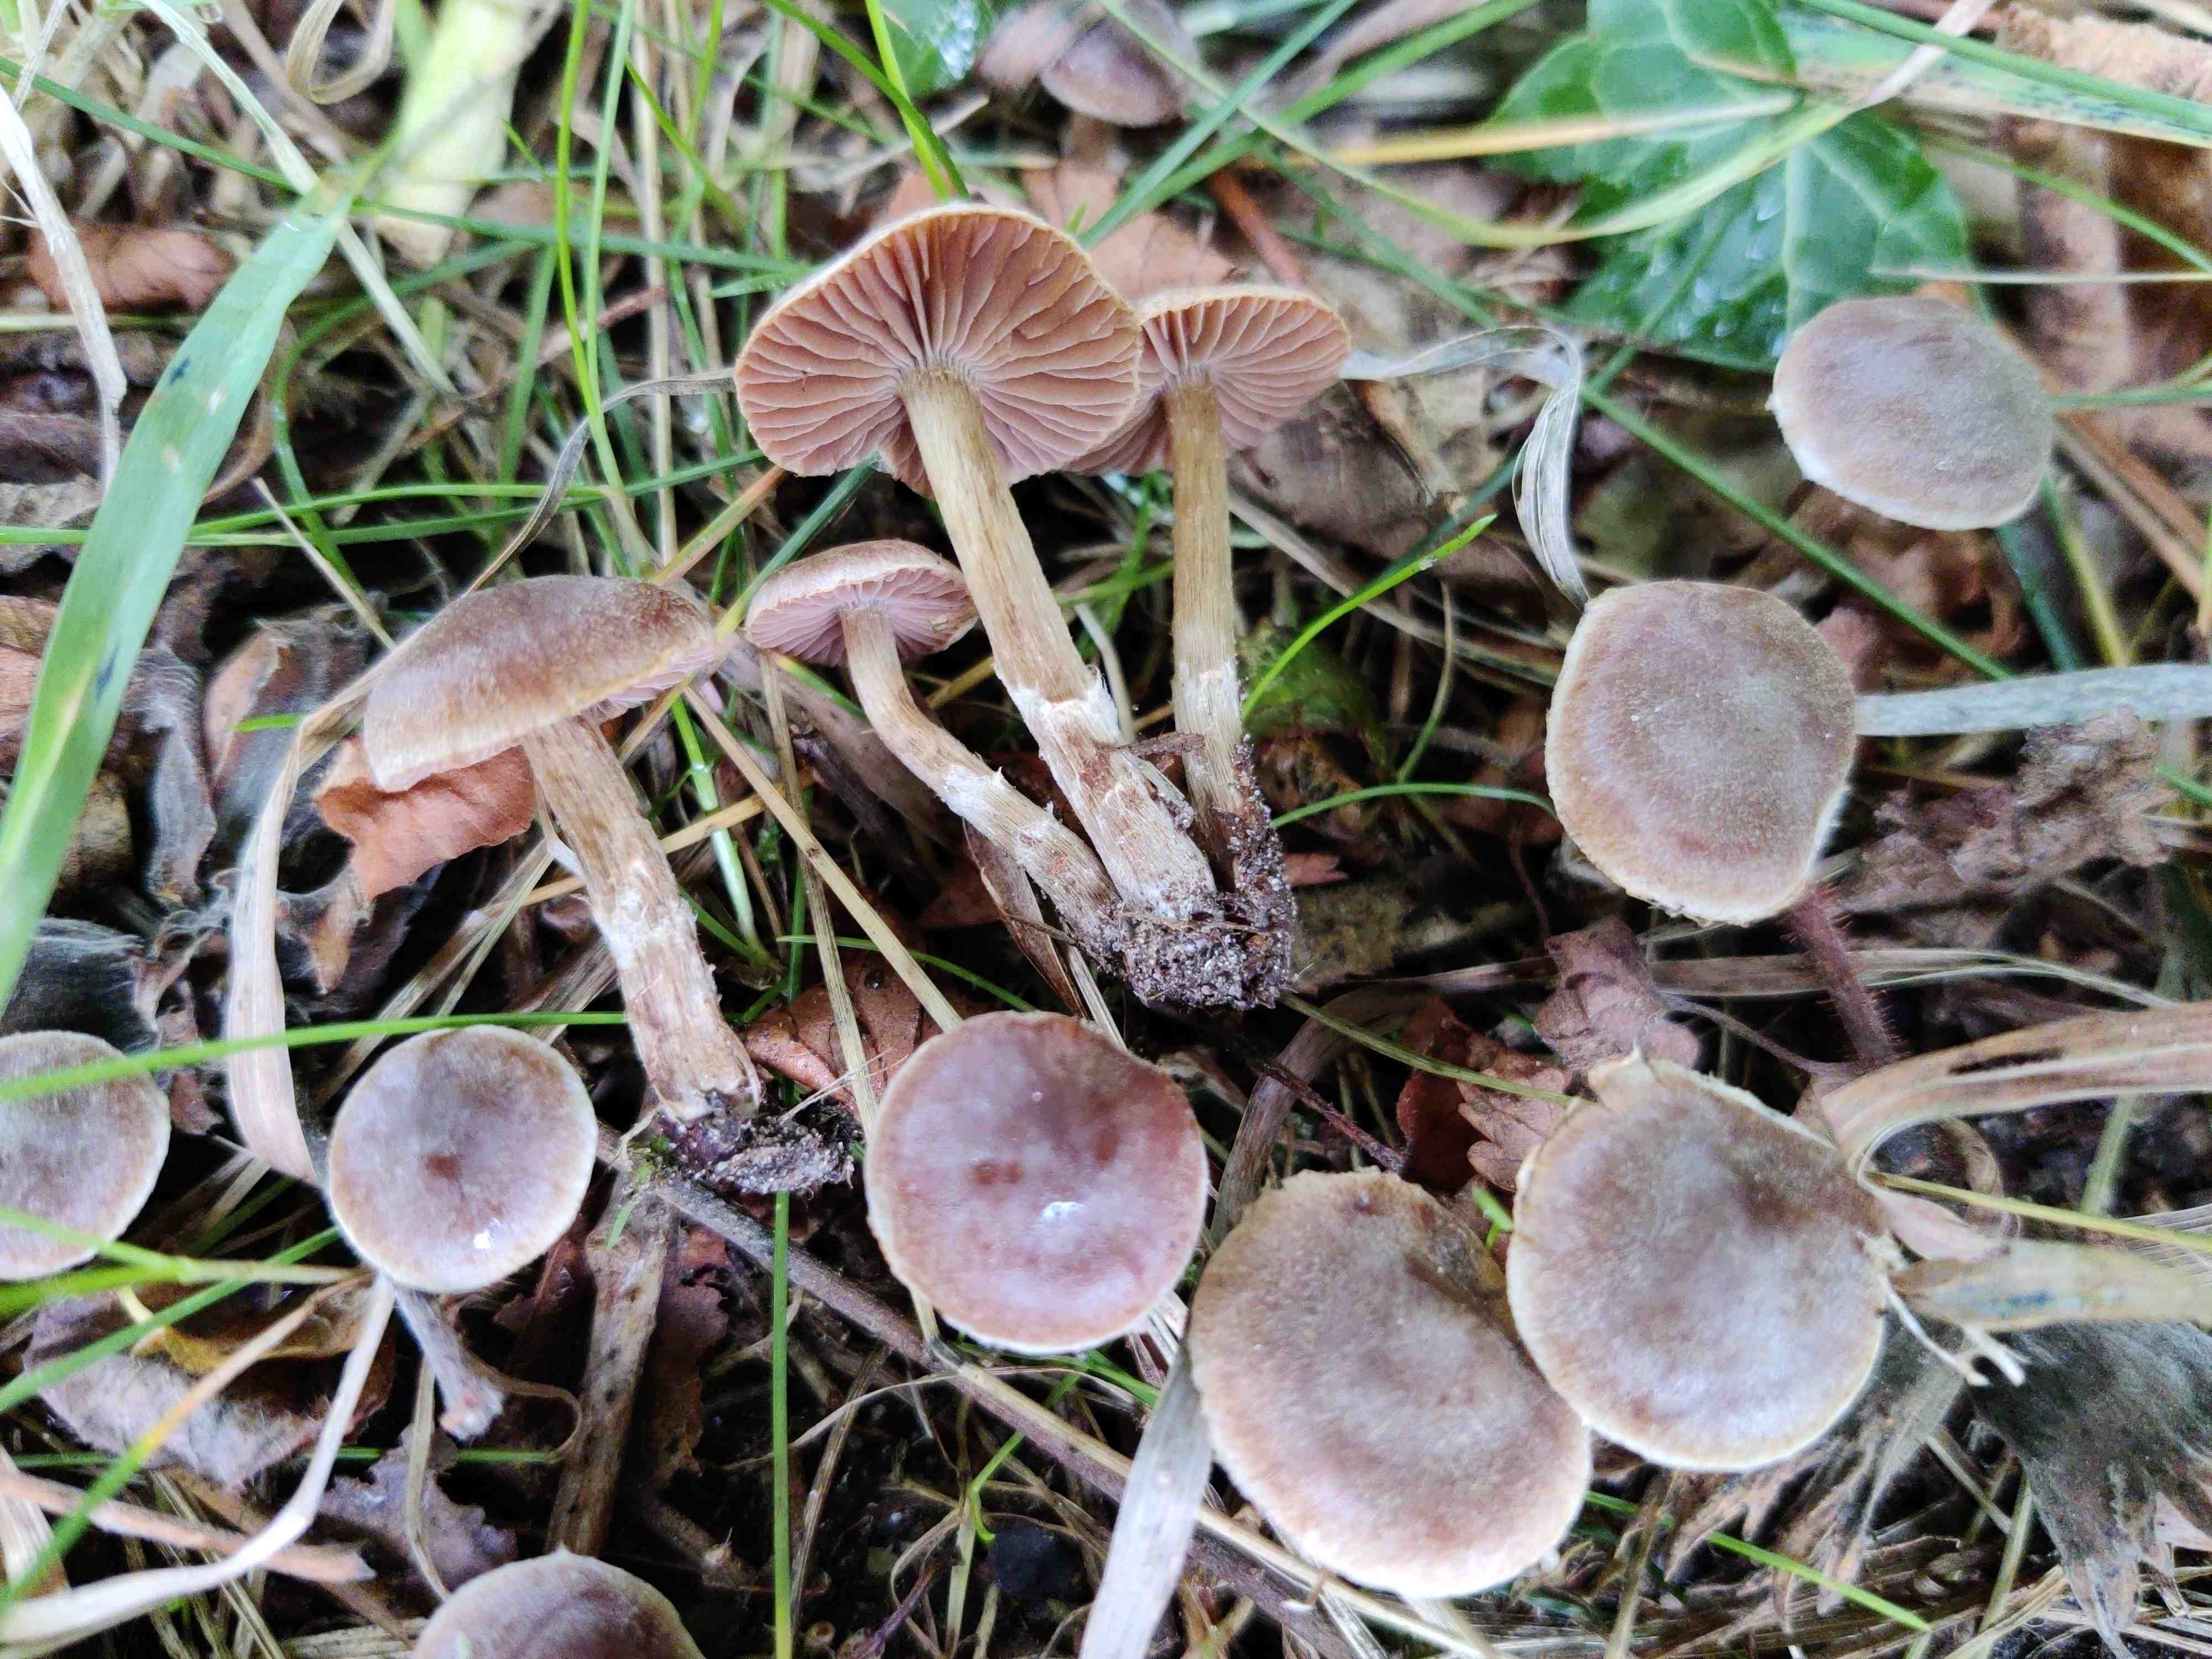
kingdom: Fungi
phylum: Basidiomycota
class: Agaricomycetes
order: Agaricales
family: Cortinariaceae
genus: Cortinarius
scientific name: Cortinarius
